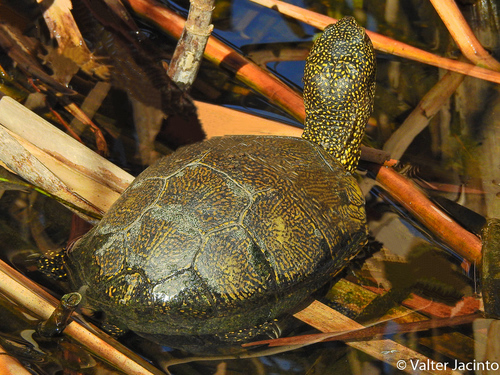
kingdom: Animalia
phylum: Chordata
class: Testudines
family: Emydidae
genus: Emys
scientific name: Emys orbicularis
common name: European pond turtle
